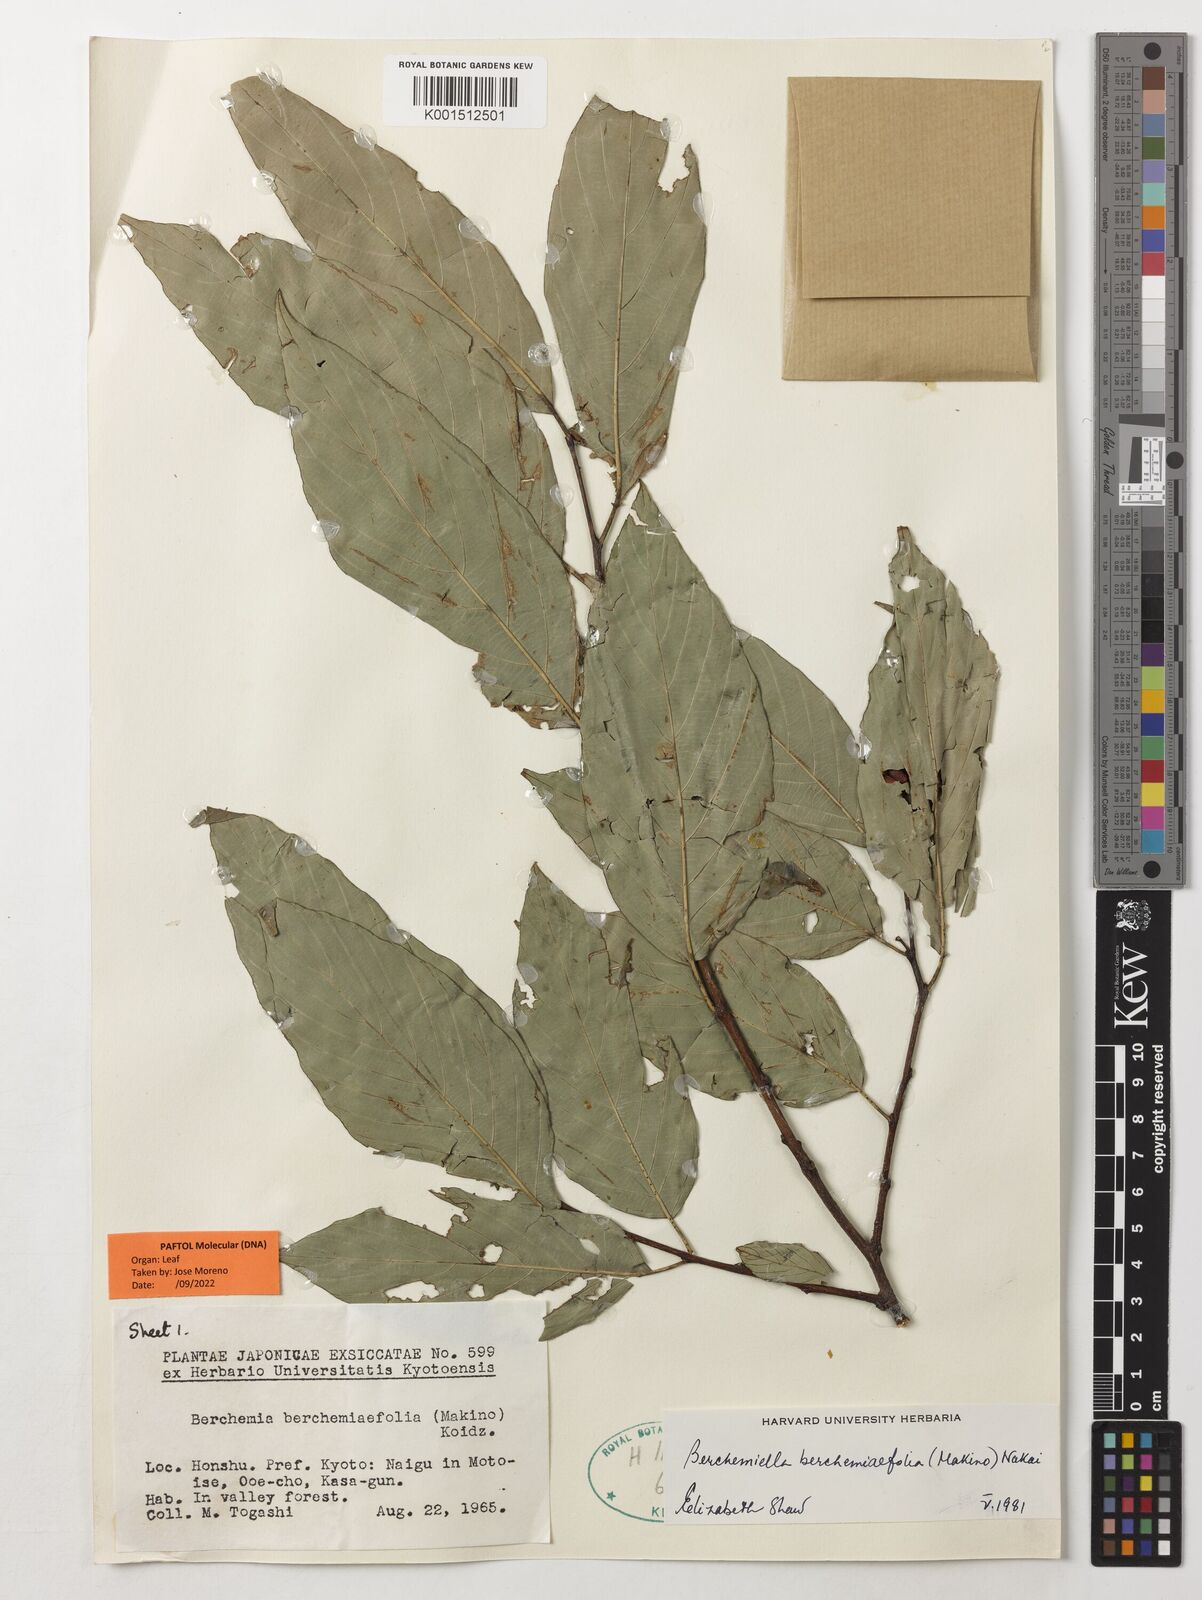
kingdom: Plantae
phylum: Tracheophyta
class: Magnoliopsida
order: Rosales
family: Rhamnaceae
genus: Berchemiella
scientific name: Berchemiella berchemiifolia
